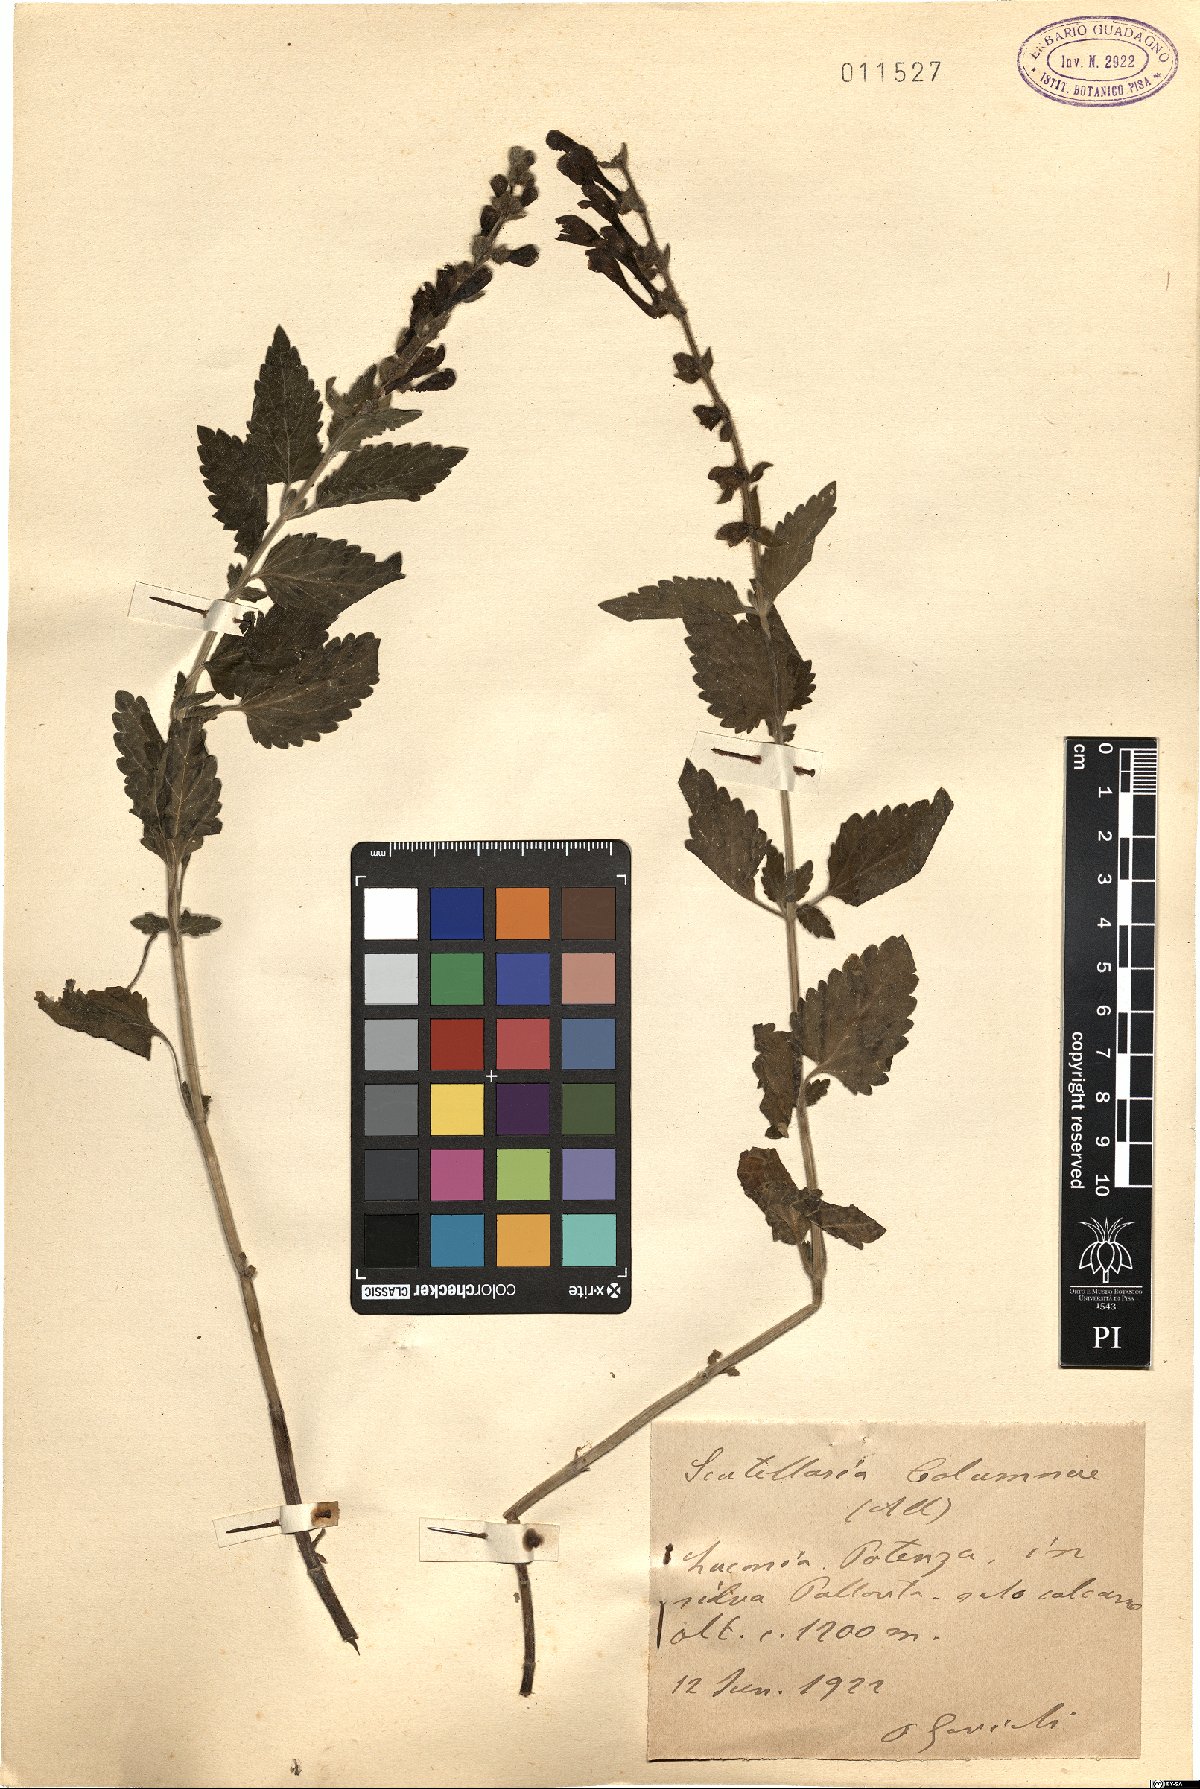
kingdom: Plantae
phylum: Tracheophyta
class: Magnoliopsida
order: Lamiales
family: Lamiaceae
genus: Scutellaria
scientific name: Scutellaria columnae
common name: Large skullcap
